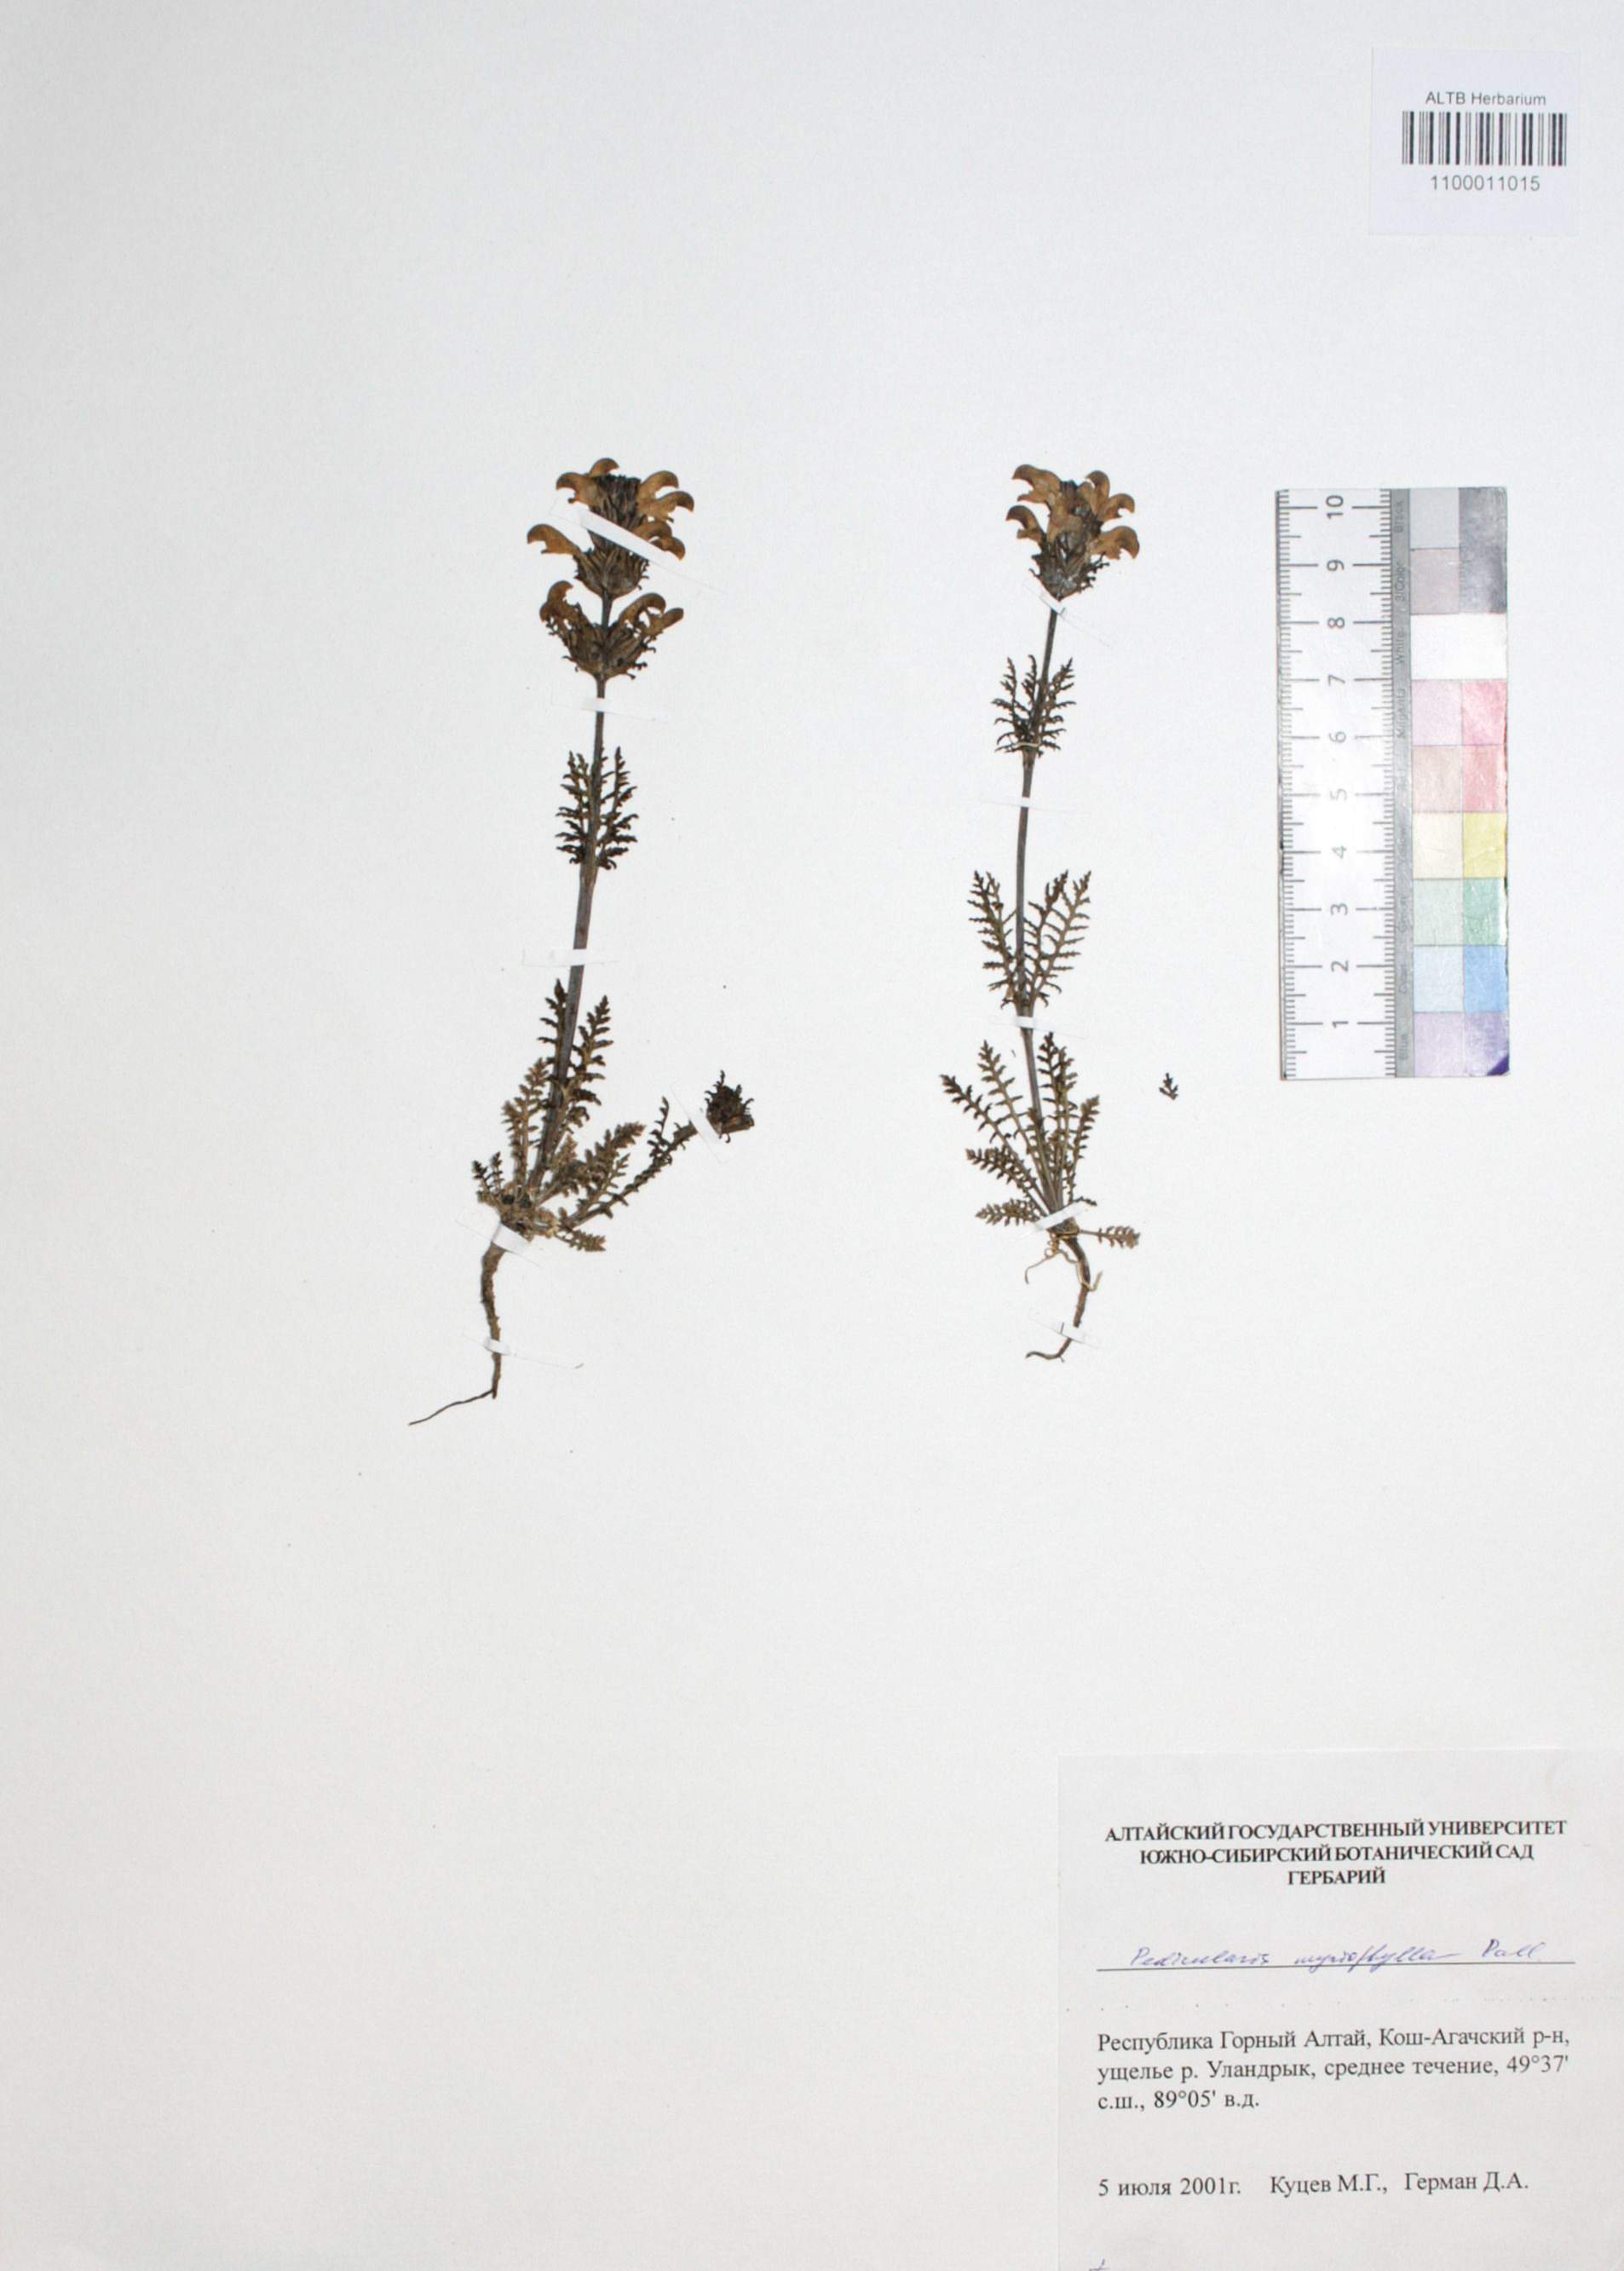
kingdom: Plantae
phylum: Tracheophyta
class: Magnoliopsida
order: Lamiales
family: Orobanchaceae
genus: Pedicularis
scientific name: Pedicularis myriophylla
